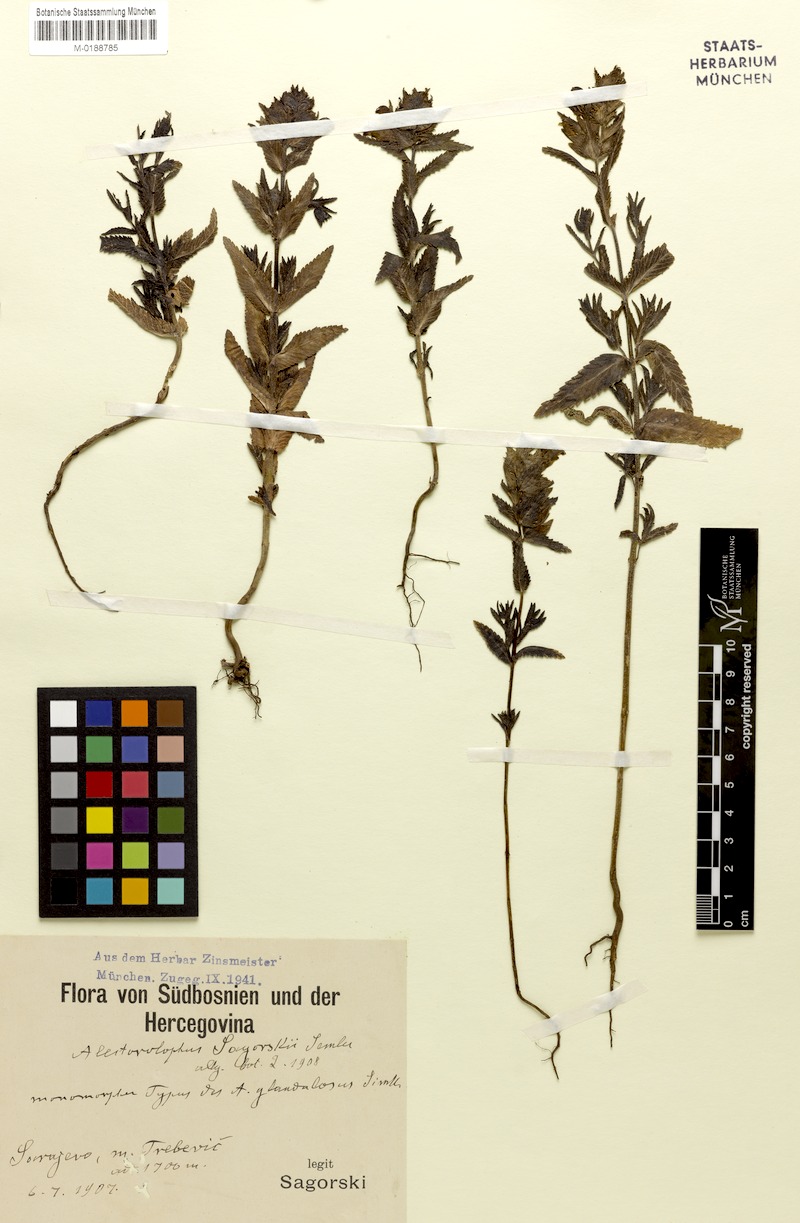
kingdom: Plantae
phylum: Tracheophyta
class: Magnoliopsida
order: Lamiales
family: Orobanchaceae
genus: Rhinanthus
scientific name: Rhinanthus rumelicus
